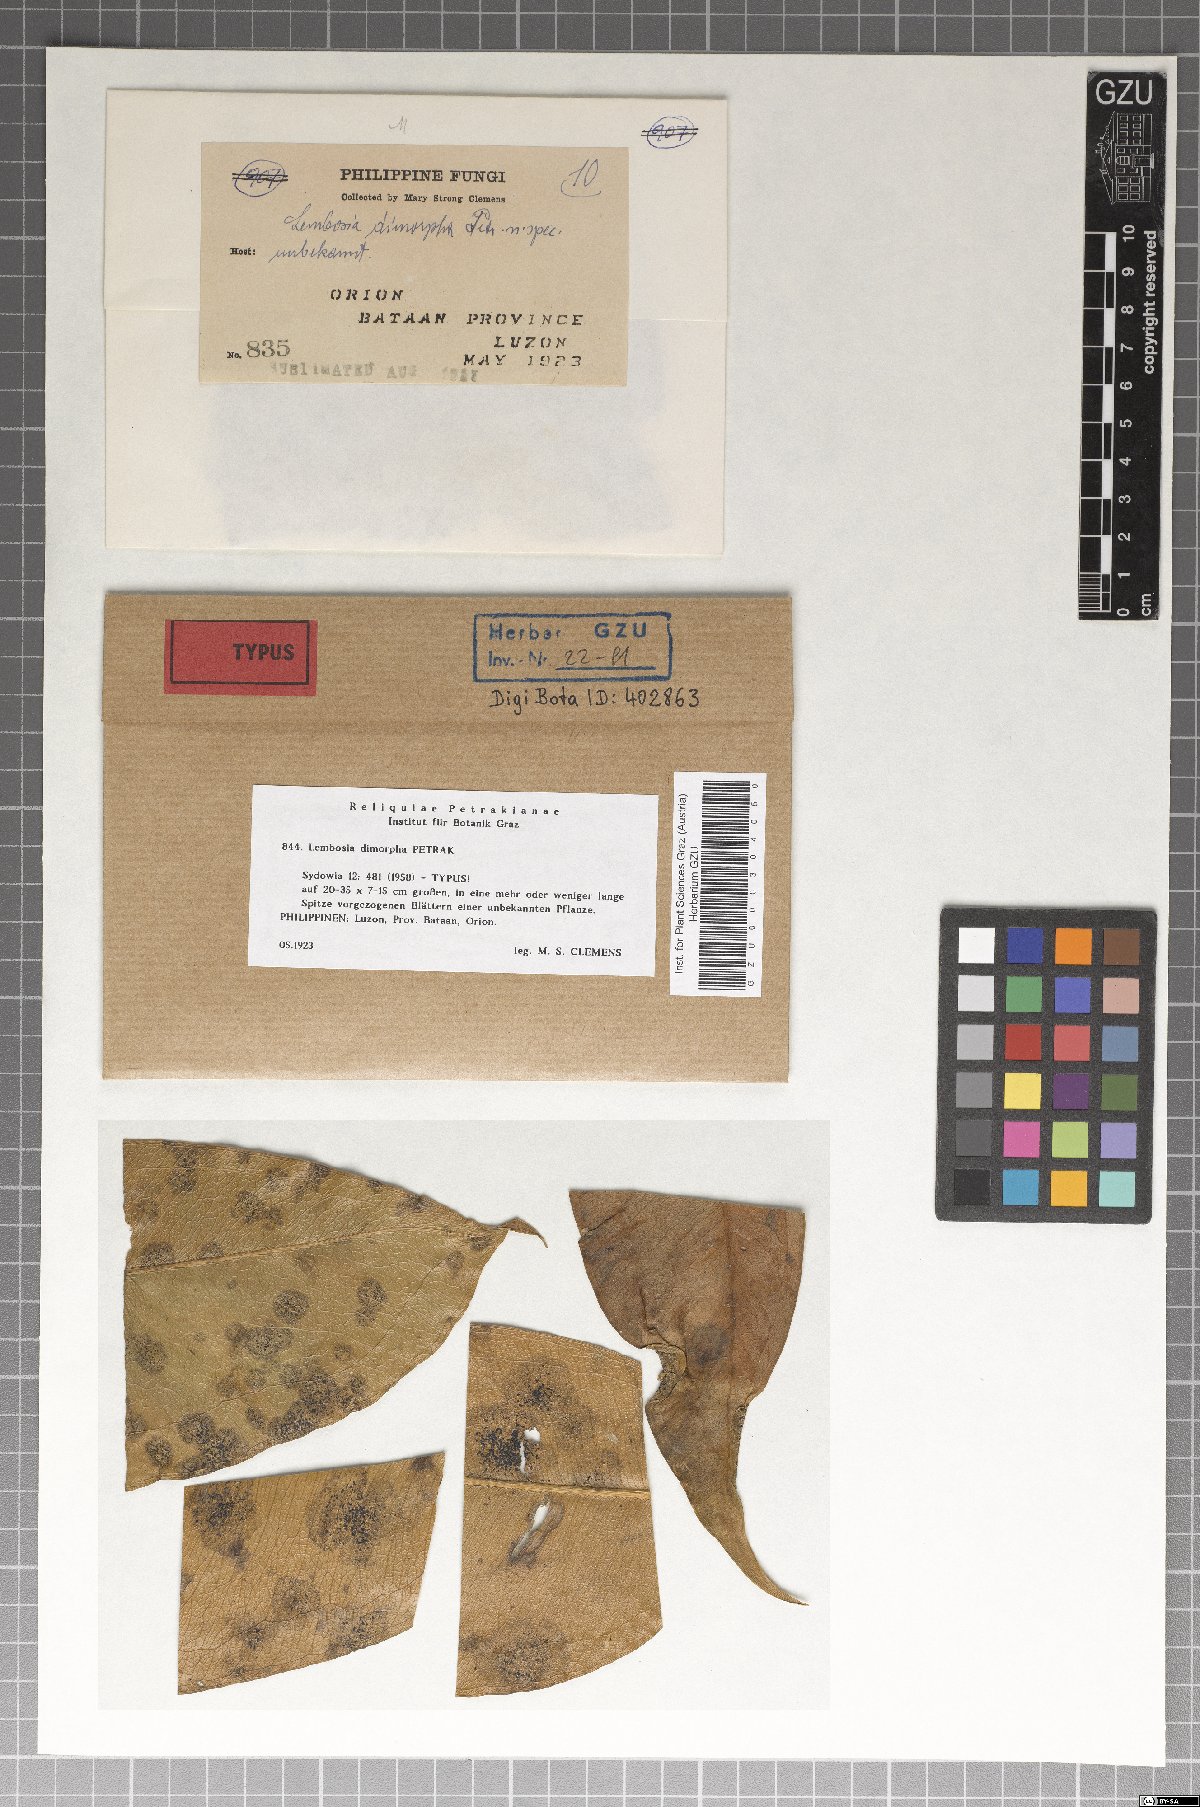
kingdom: Fungi
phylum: Ascomycota
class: Dothideomycetes
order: Asterinales
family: Asterinaceae
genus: Lembosia
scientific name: Lembosia dimorpha
